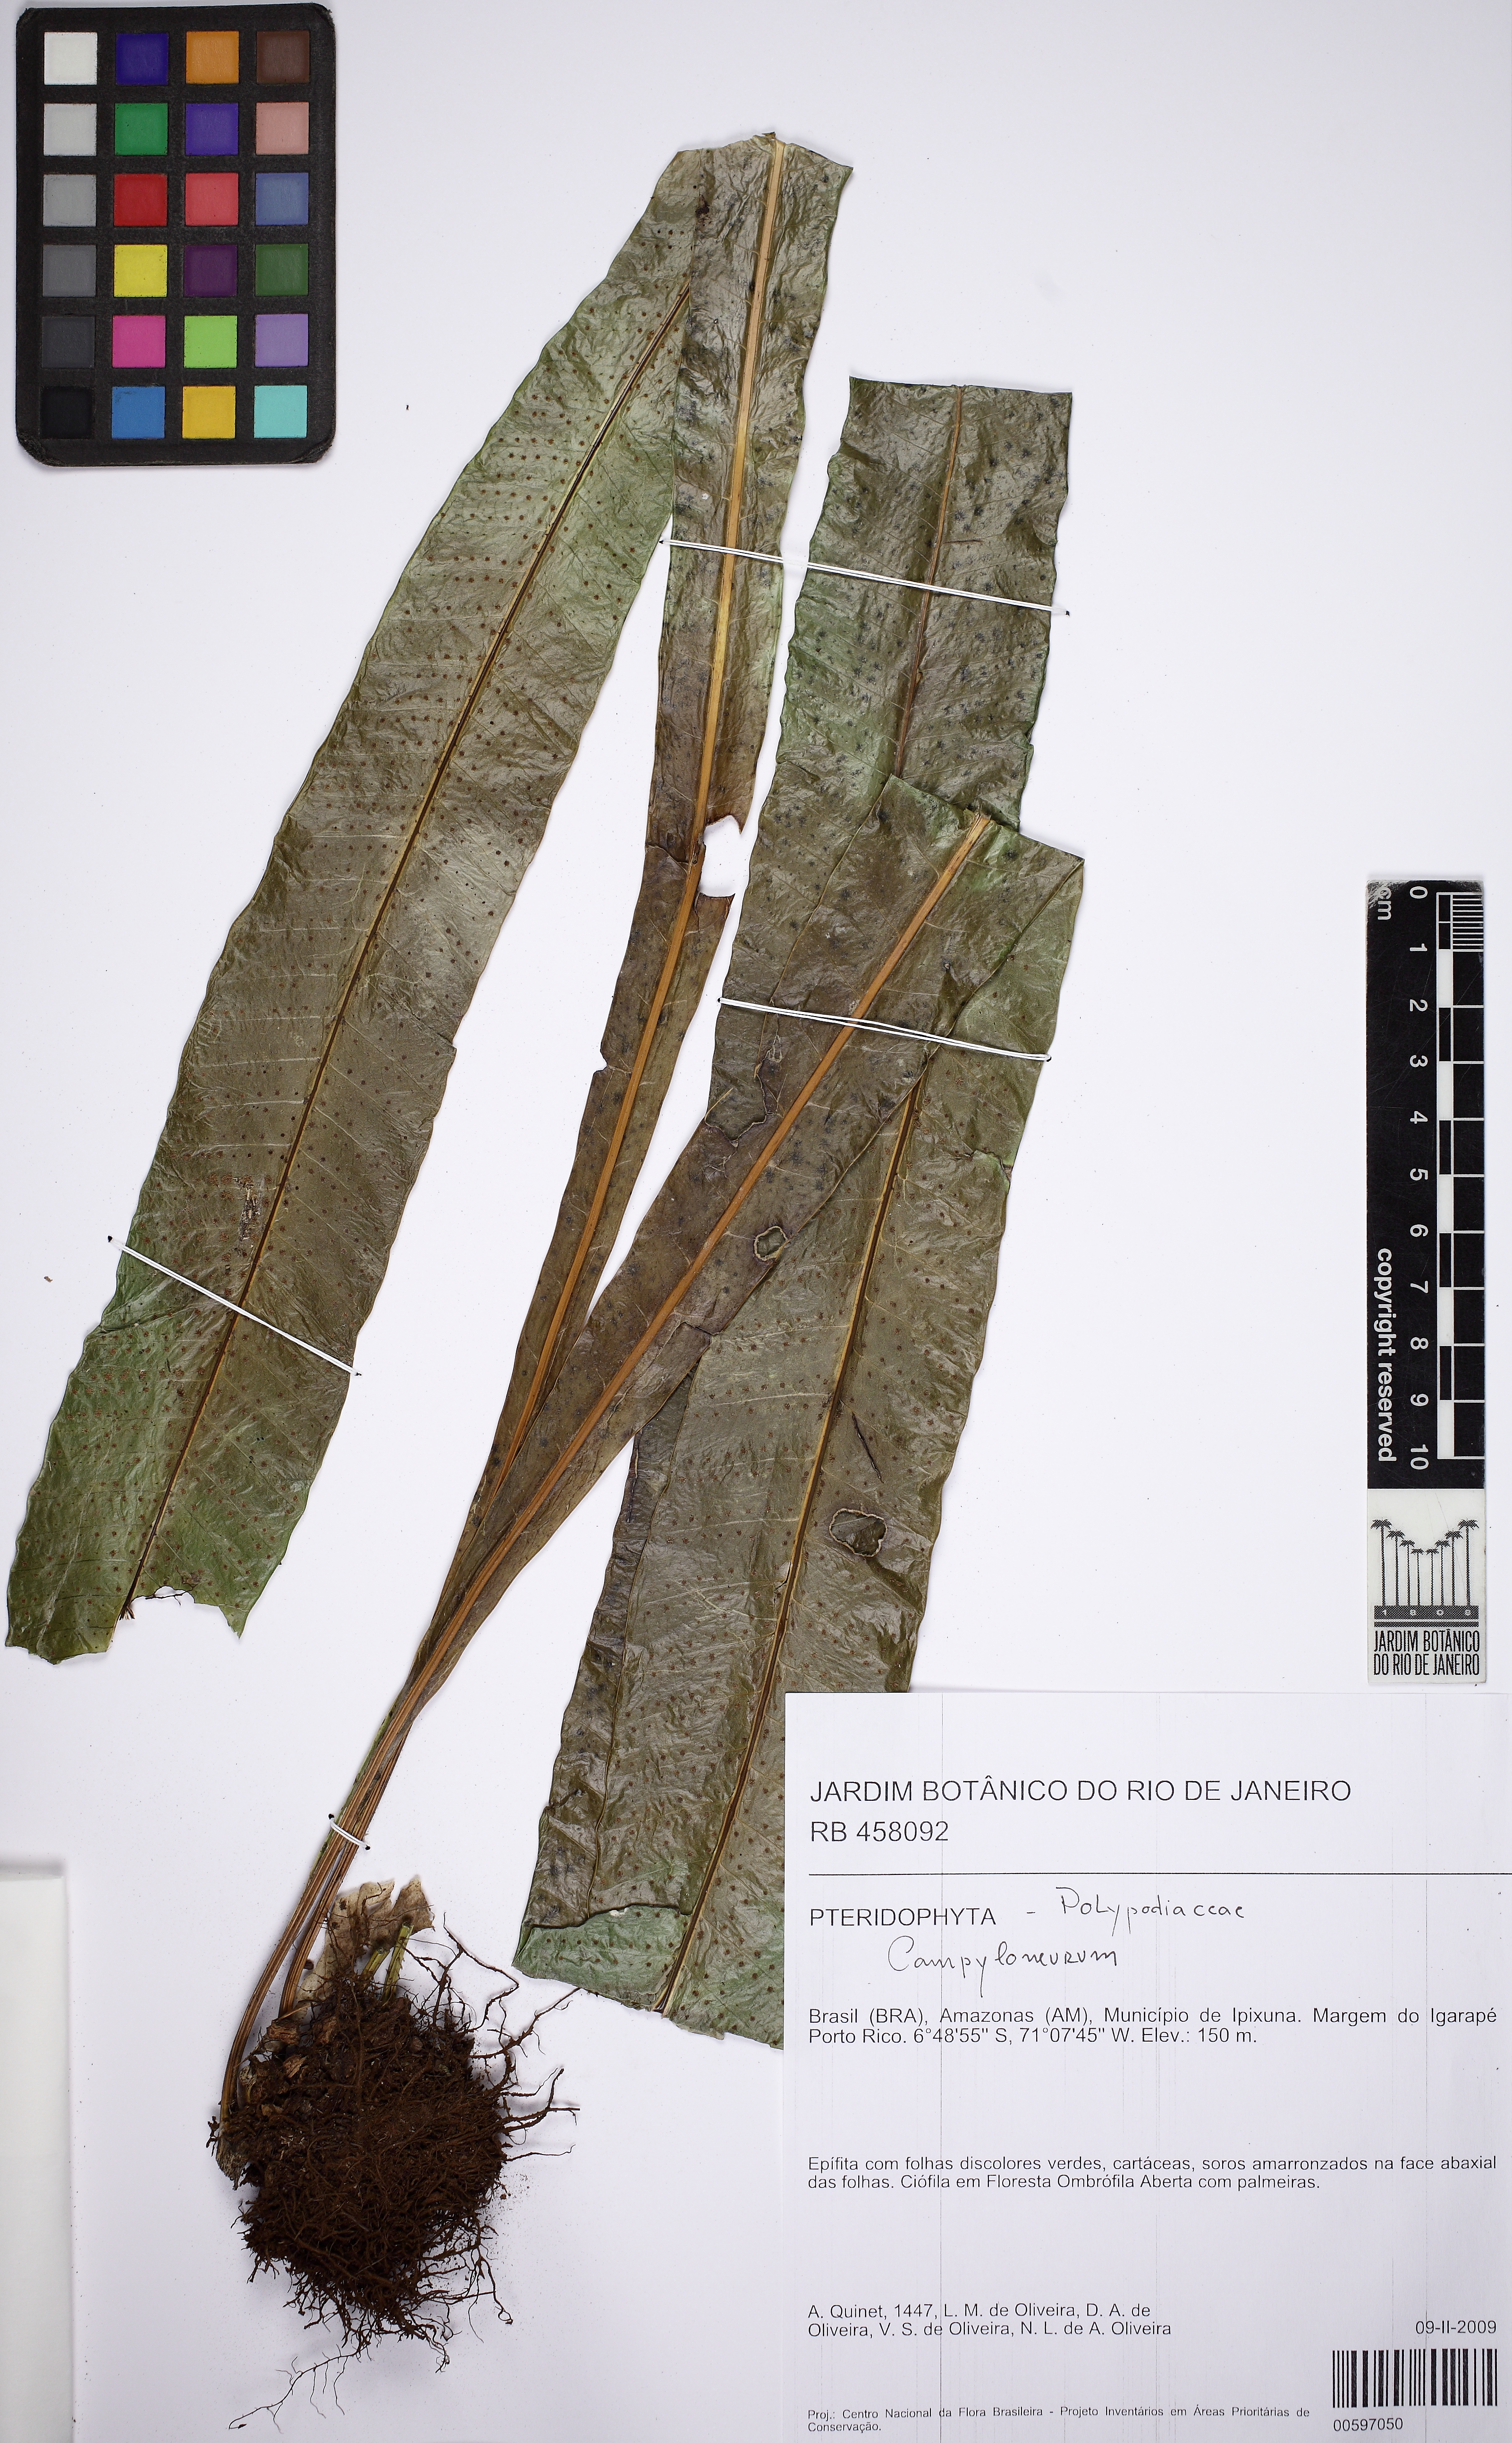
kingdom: Plantae
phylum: Tracheophyta
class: Polypodiopsida
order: Polypodiales
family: Polypodiaceae
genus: Campyloneurum
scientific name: Campyloneurum phyllitidis
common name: Cow-tongue fern
